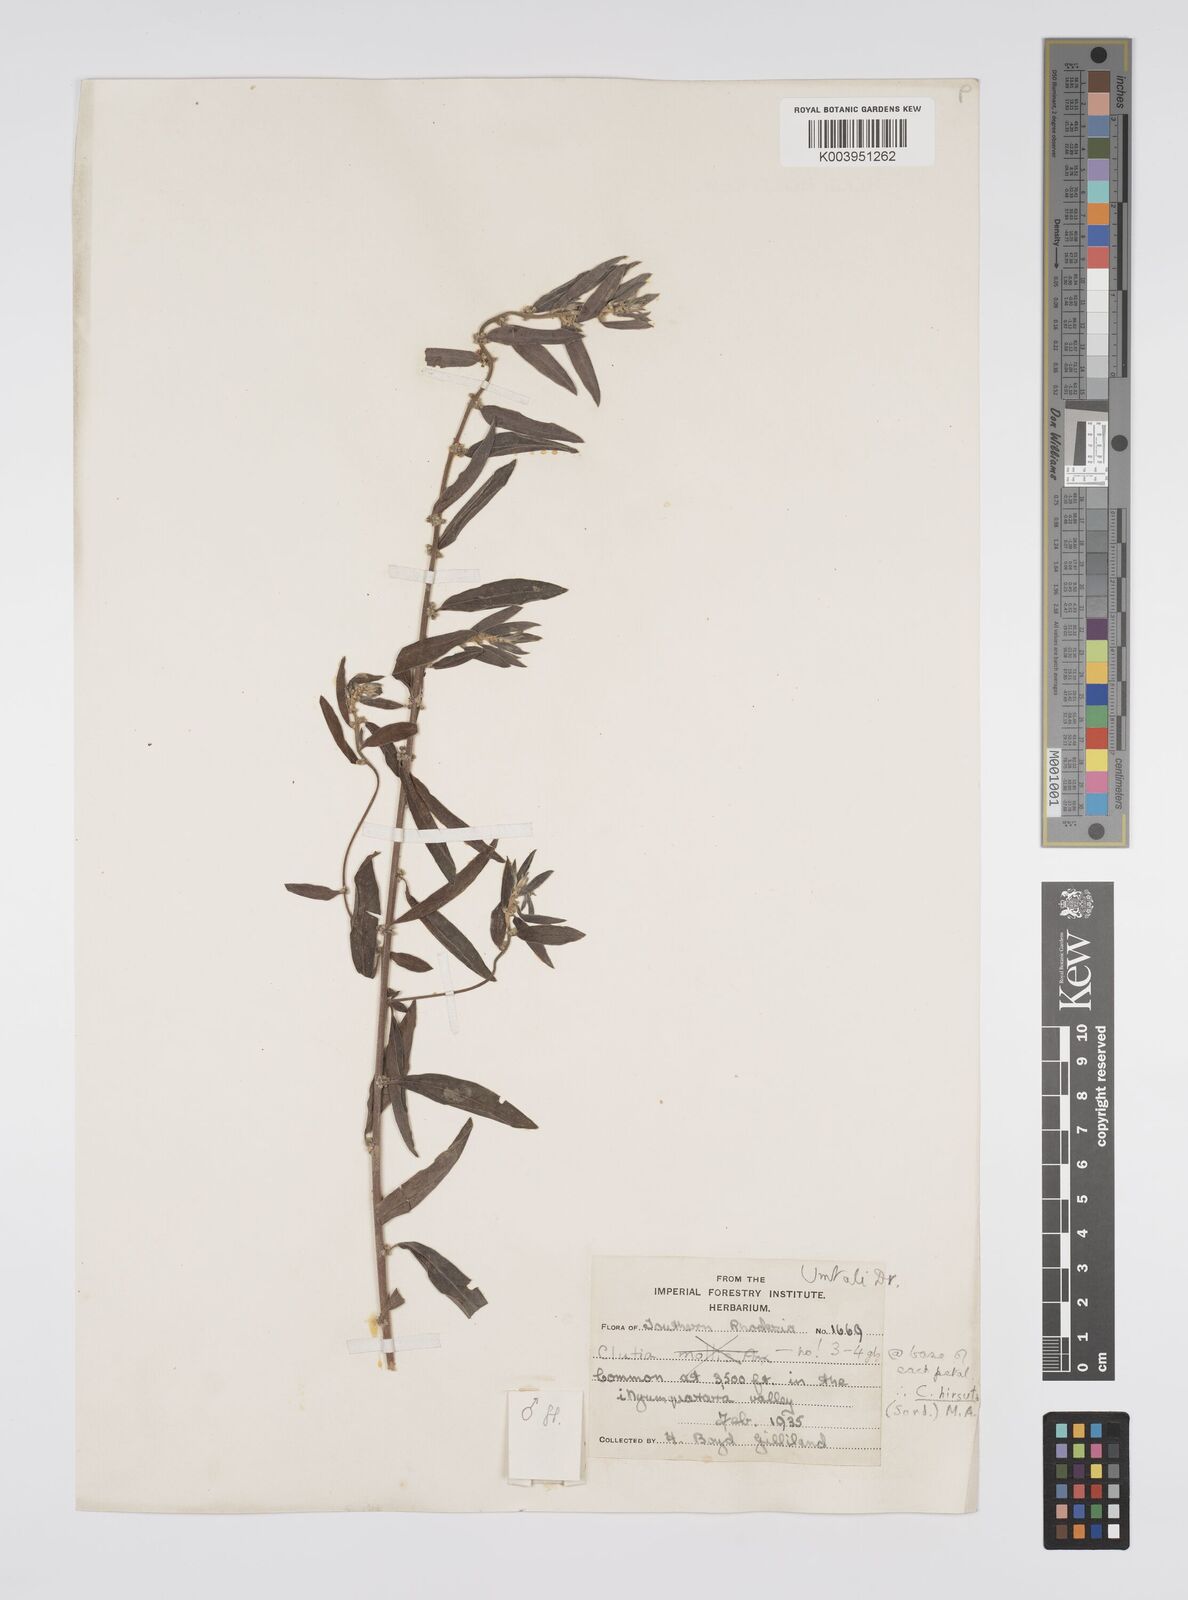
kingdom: Plantae
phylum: Tracheophyta
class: Magnoliopsida
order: Malpighiales
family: Peraceae
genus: Clutia
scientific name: Clutia
